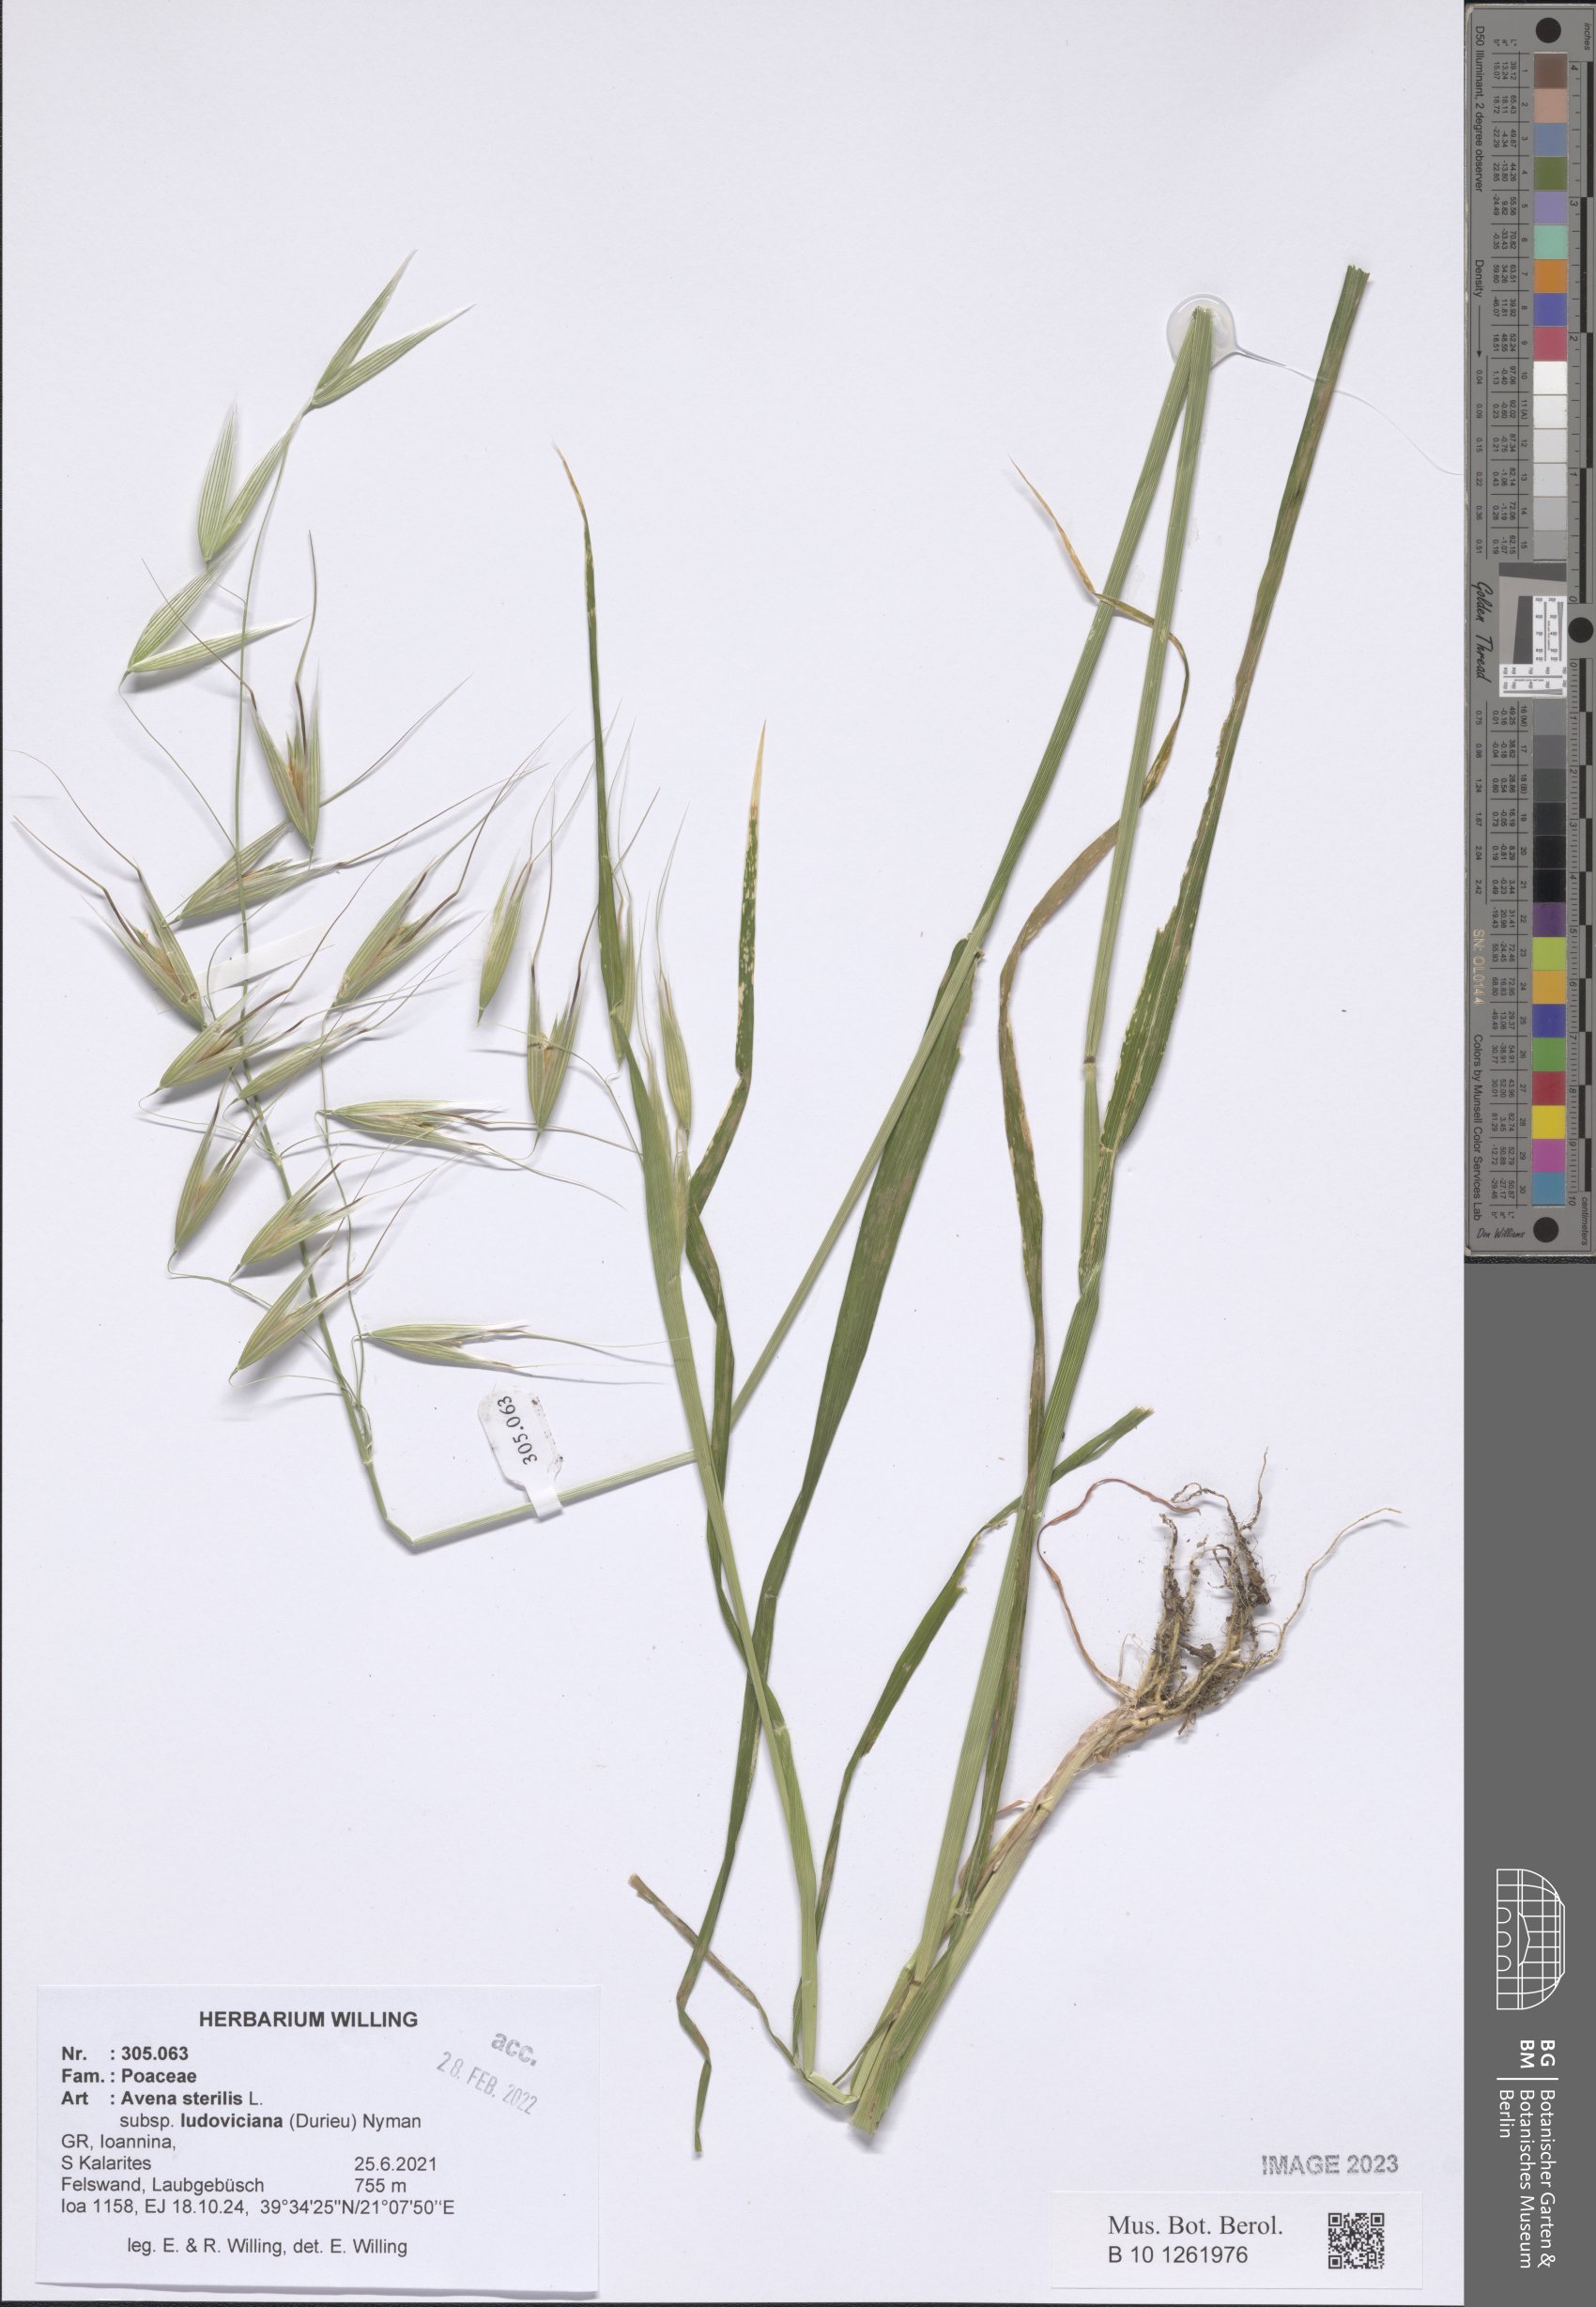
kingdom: Plantae
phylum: Tracheophyta
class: Liliopsida
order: Poales
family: Poaceae
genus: Avena
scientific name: Avena sterilis
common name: Animated oat
